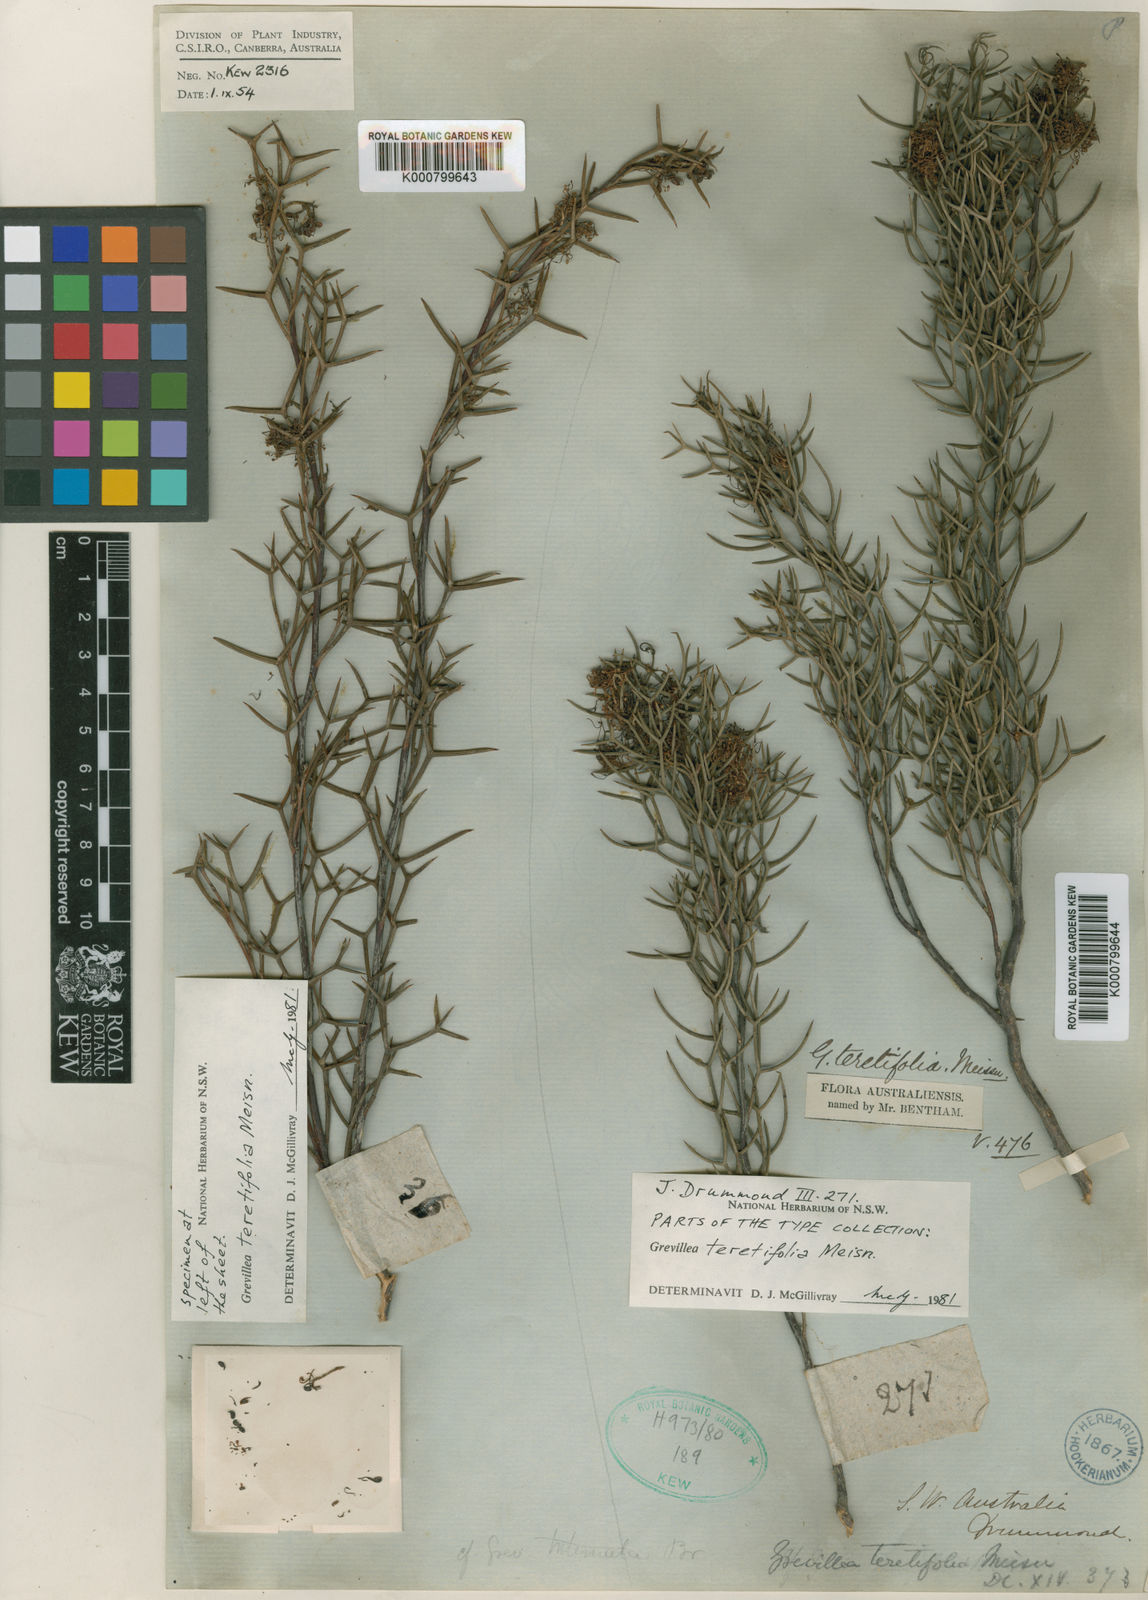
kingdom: Plantae
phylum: Tracheophyta
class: Magnoliopsida
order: Proteales
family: Proteaceae
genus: Grevillea
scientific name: Grevillea teretifolia
